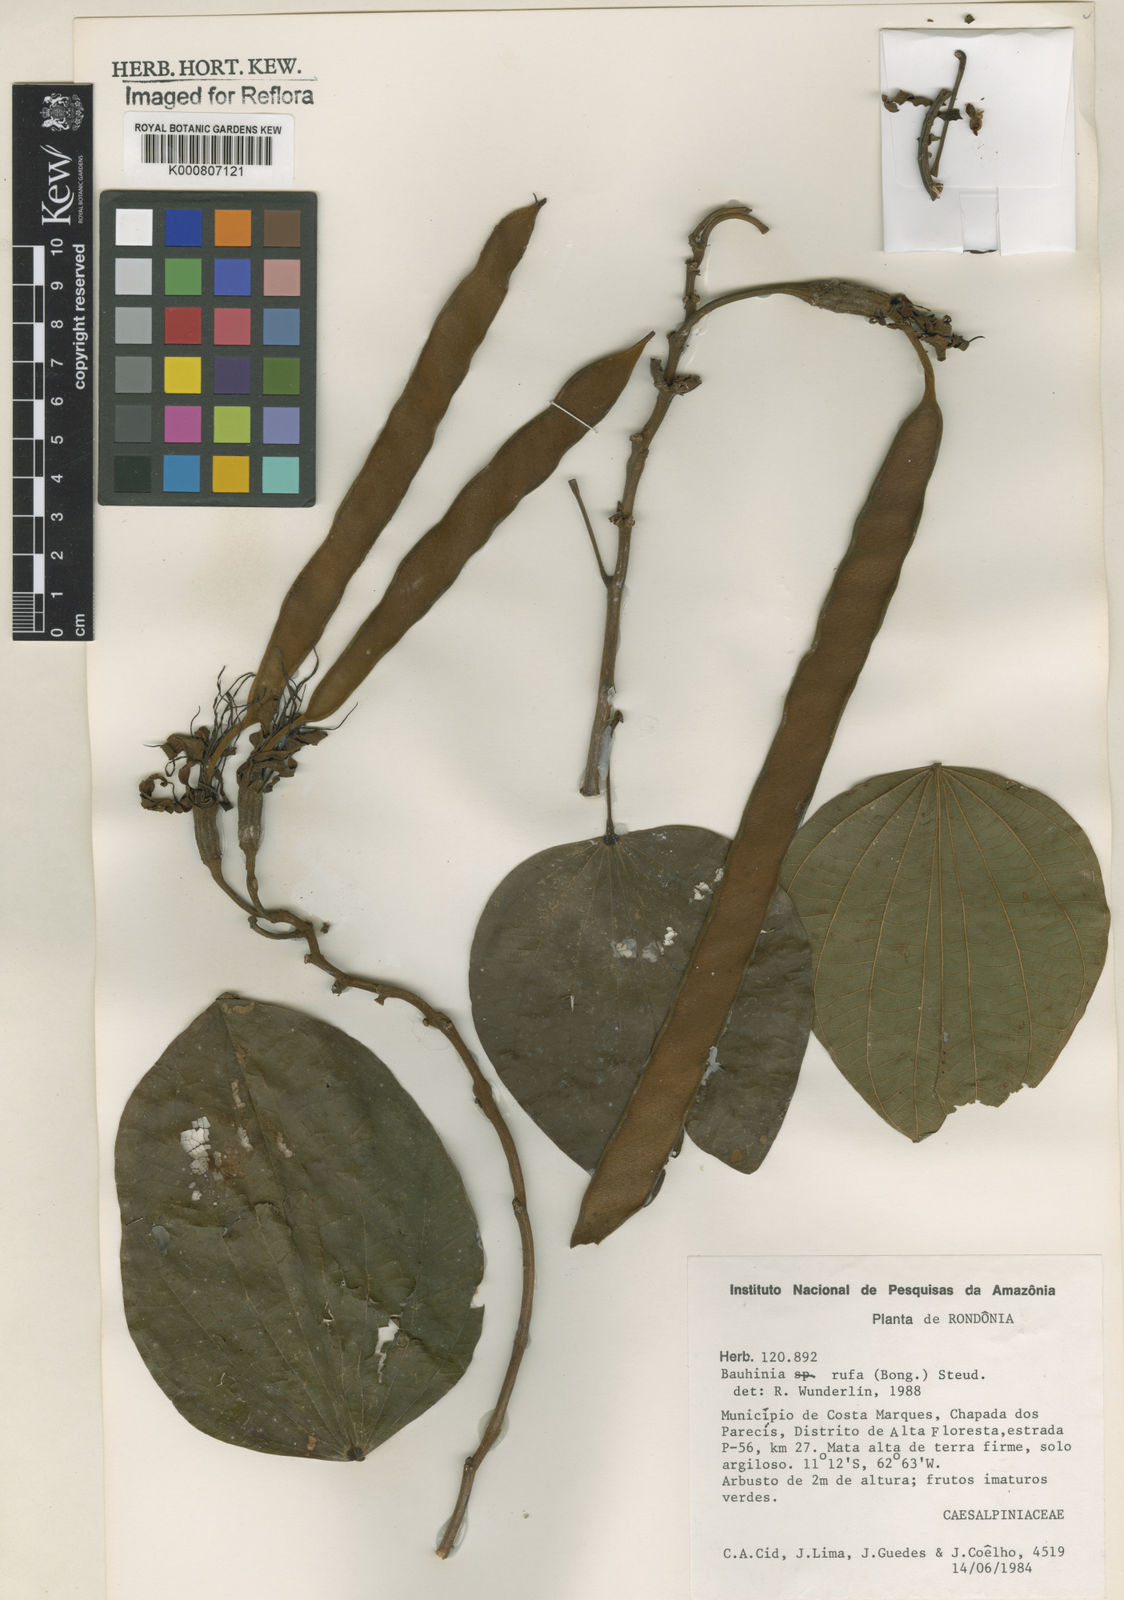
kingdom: Plantae
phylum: Tracheophyta
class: Magnoliopsida
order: Fabales
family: Fabaceae
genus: Bauhinia
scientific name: Bauhinia rufa
